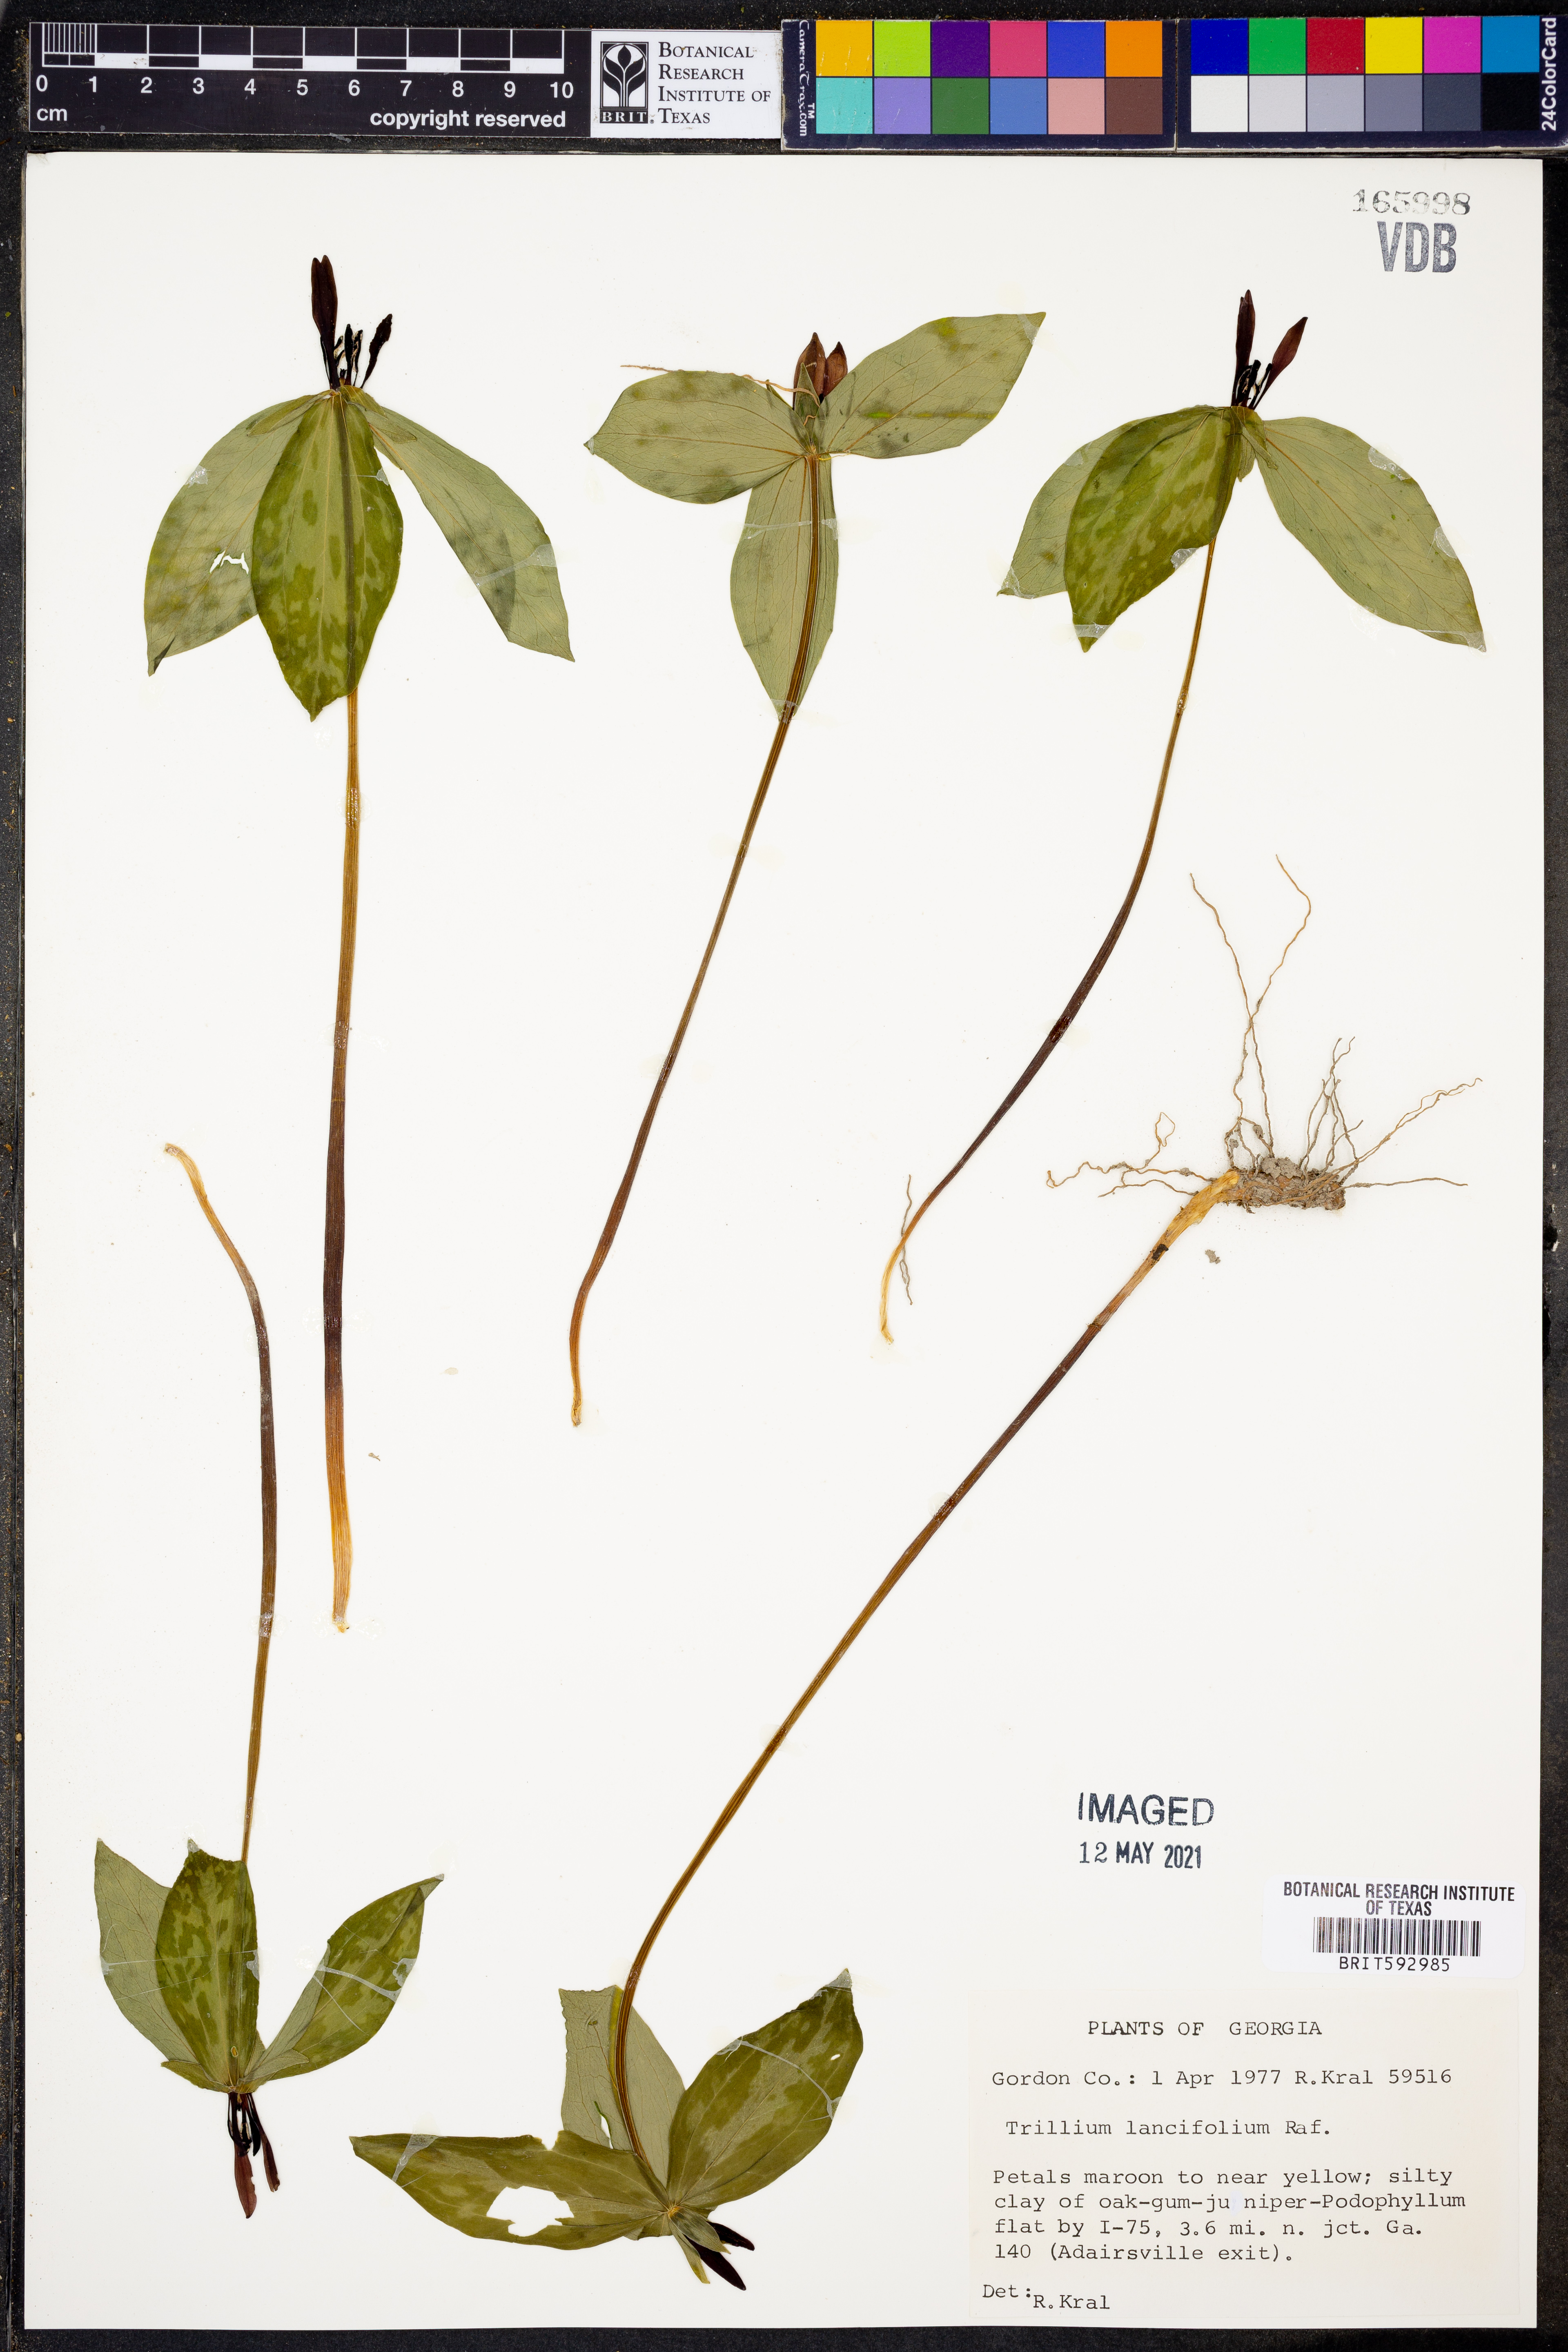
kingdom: Plantae
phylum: Tracheophyta
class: Liliopsida
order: Liliales
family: Melanthiaceae
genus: Trillium
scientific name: Trillium lancifolium
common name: Lance-leaved trillium
